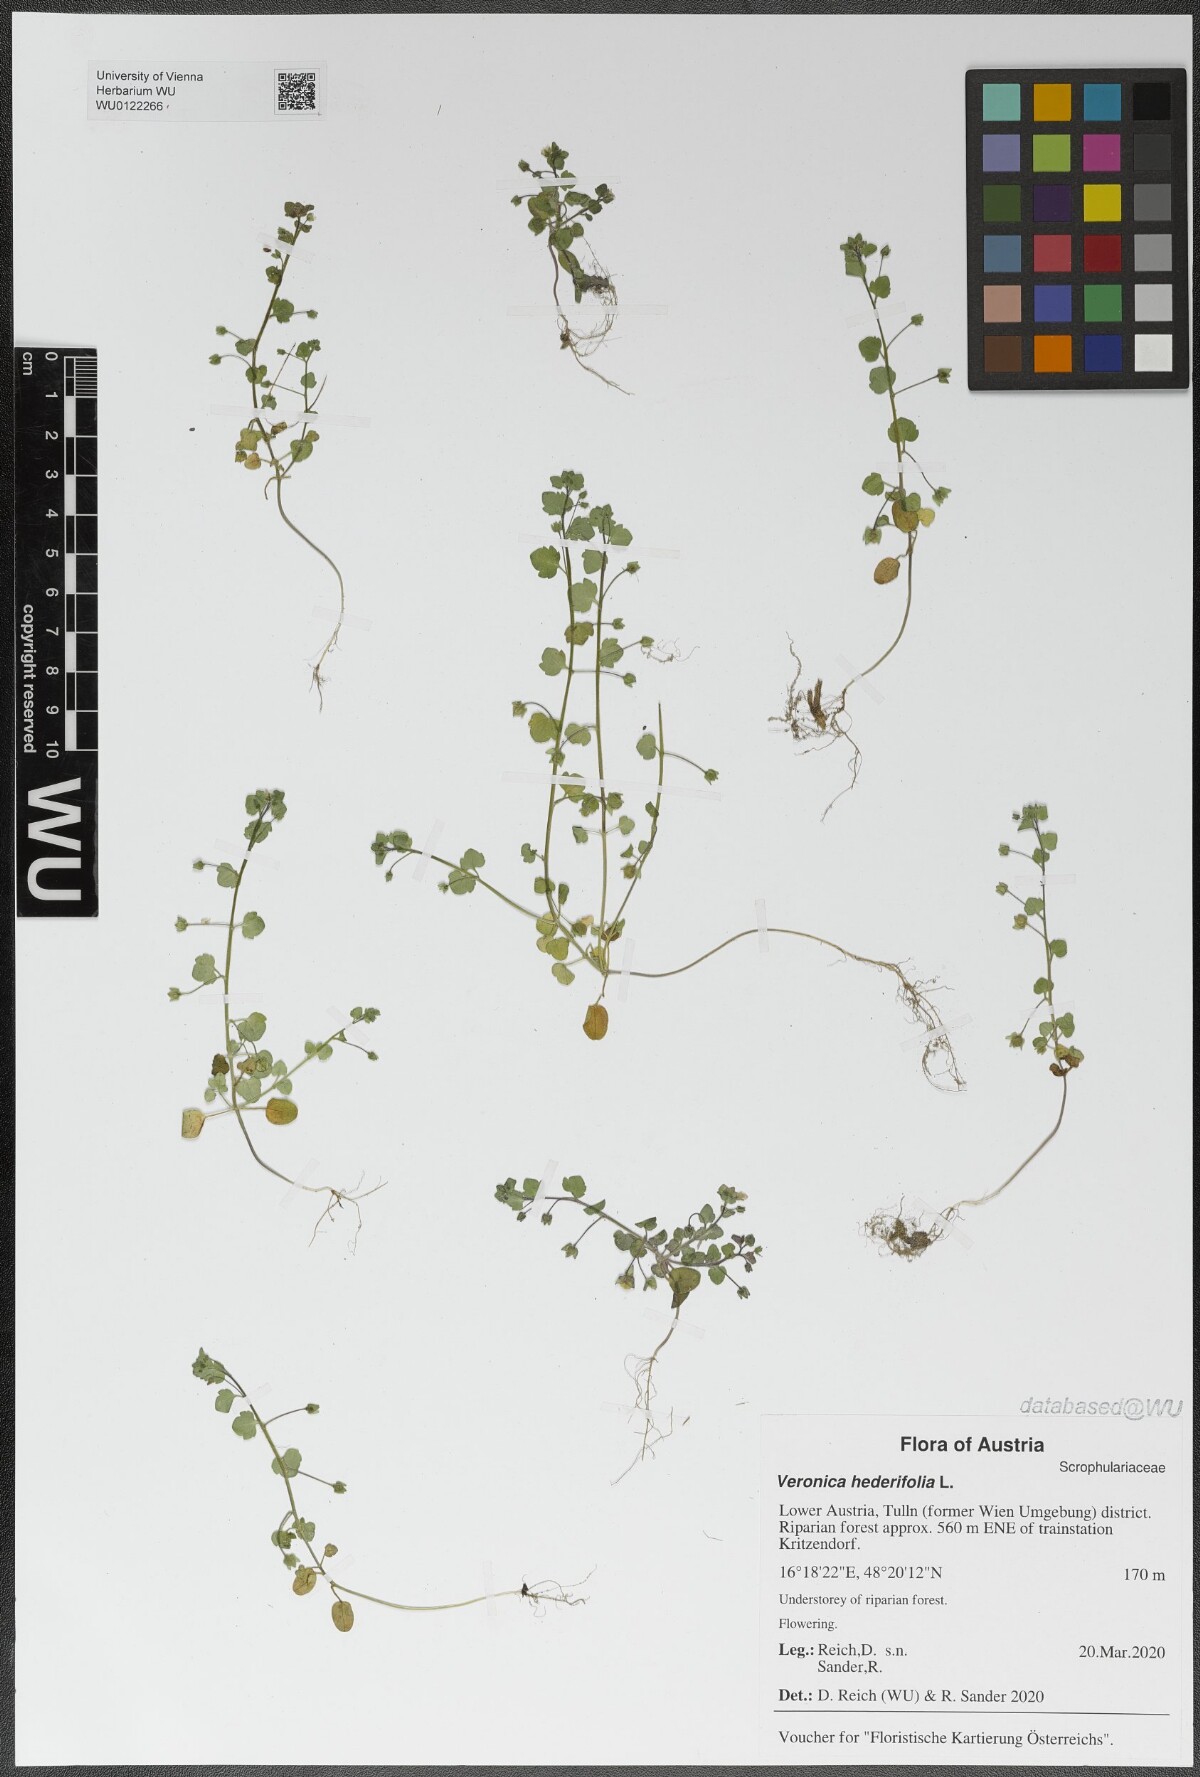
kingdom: Plantae
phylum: Tracheophyta
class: Magnoliopsida
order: Lamiales
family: Plantaginaceae
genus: Veronica
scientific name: Veronica hederifolia
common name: Ivy-leaved speedwell
